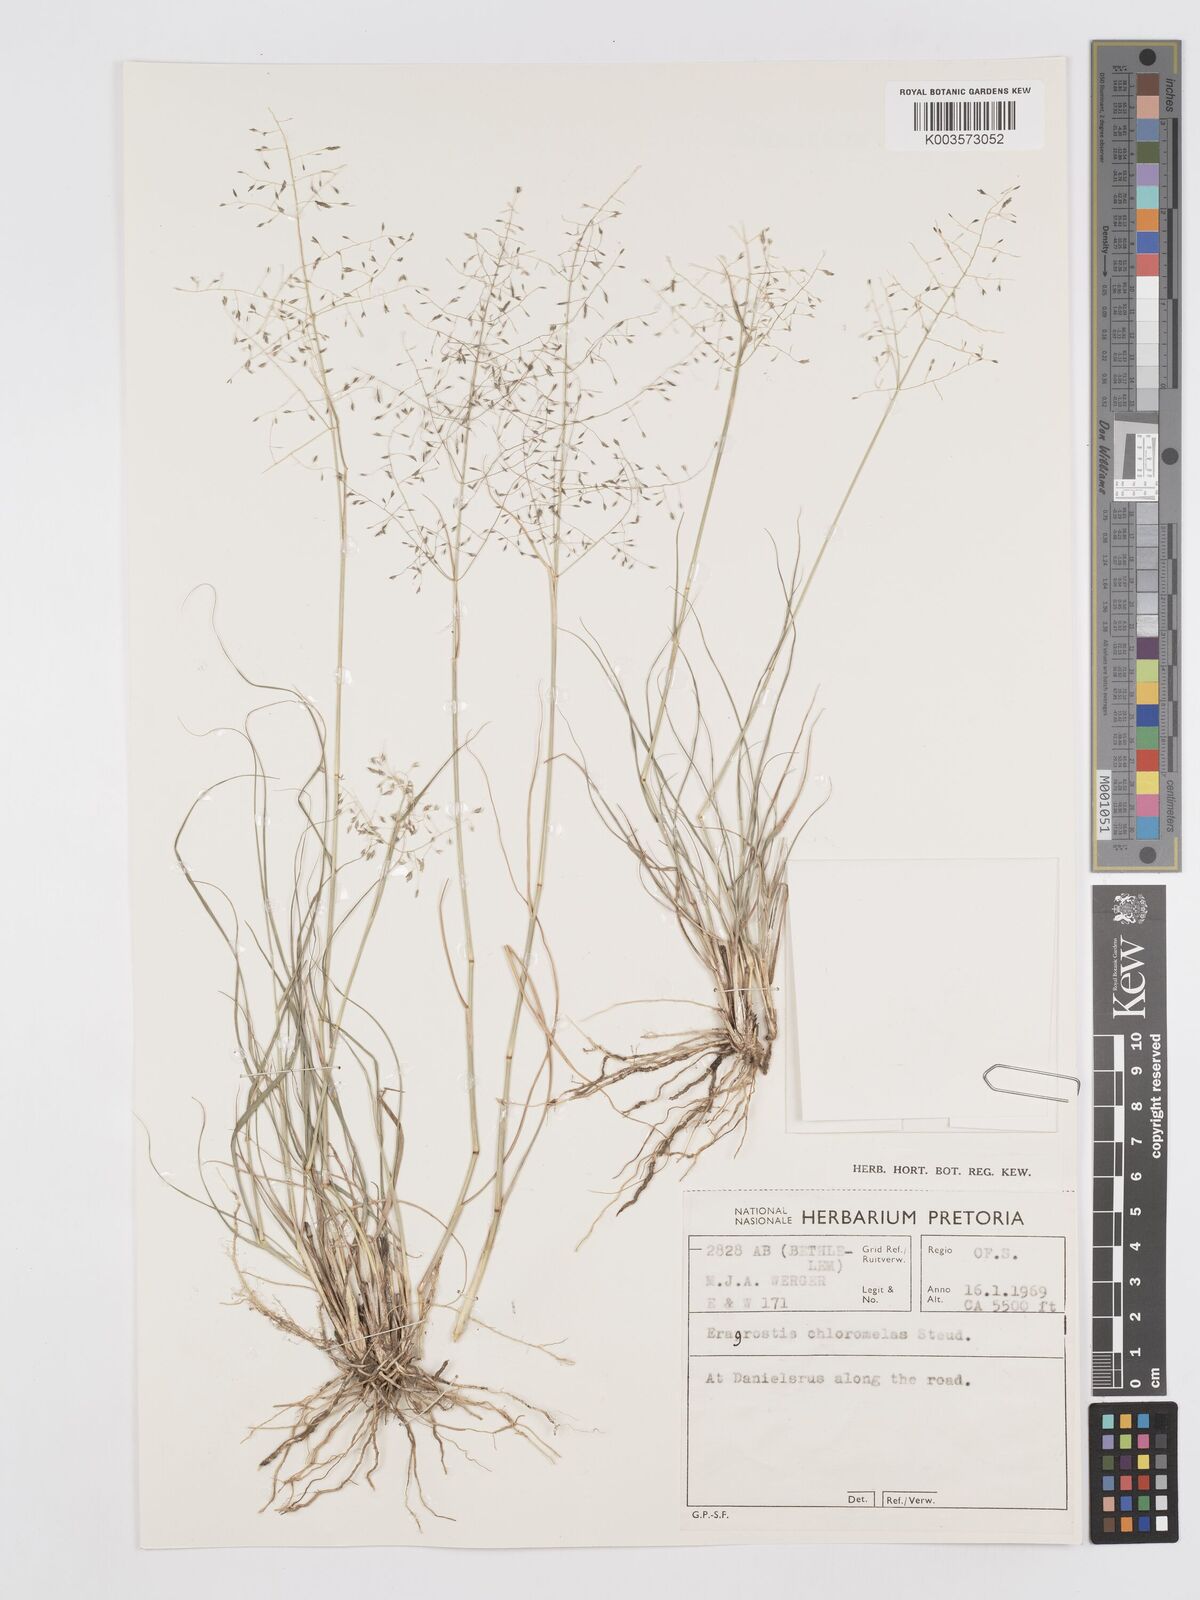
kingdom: Plantae
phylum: Tracheophyta
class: Liliopsida
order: Poales
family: Poaceae
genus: Eragrostis
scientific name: Eragrostis curvula
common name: African love-grass
